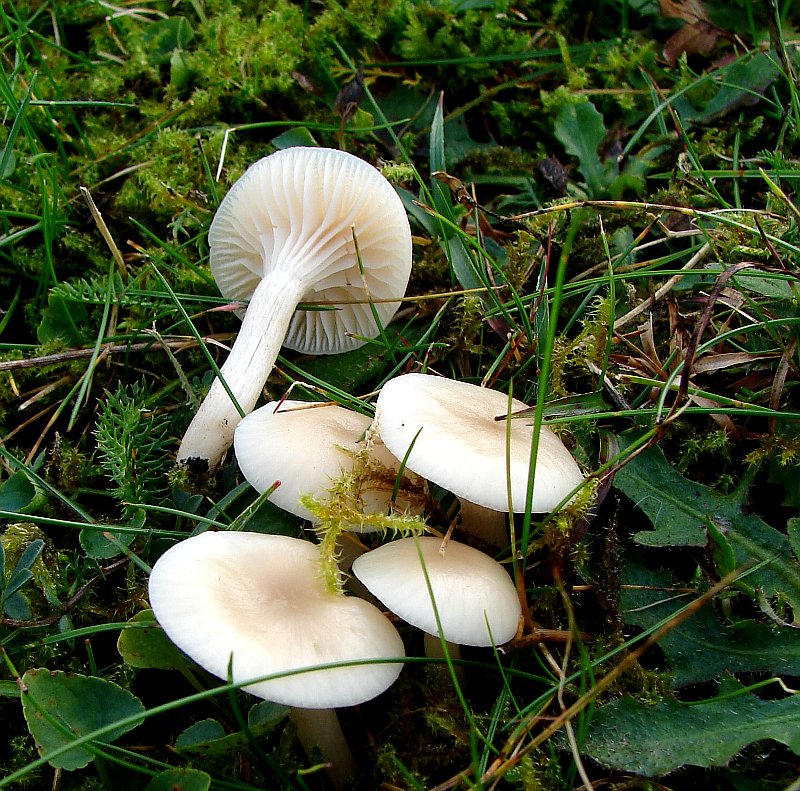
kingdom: Fungi
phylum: Basidiomycota
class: Agaricomycetes
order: Agaricales
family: Hygrophoraceae
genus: Cuphophyllus
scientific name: Cuphophyllus virgineus
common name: snehvid vokshat
